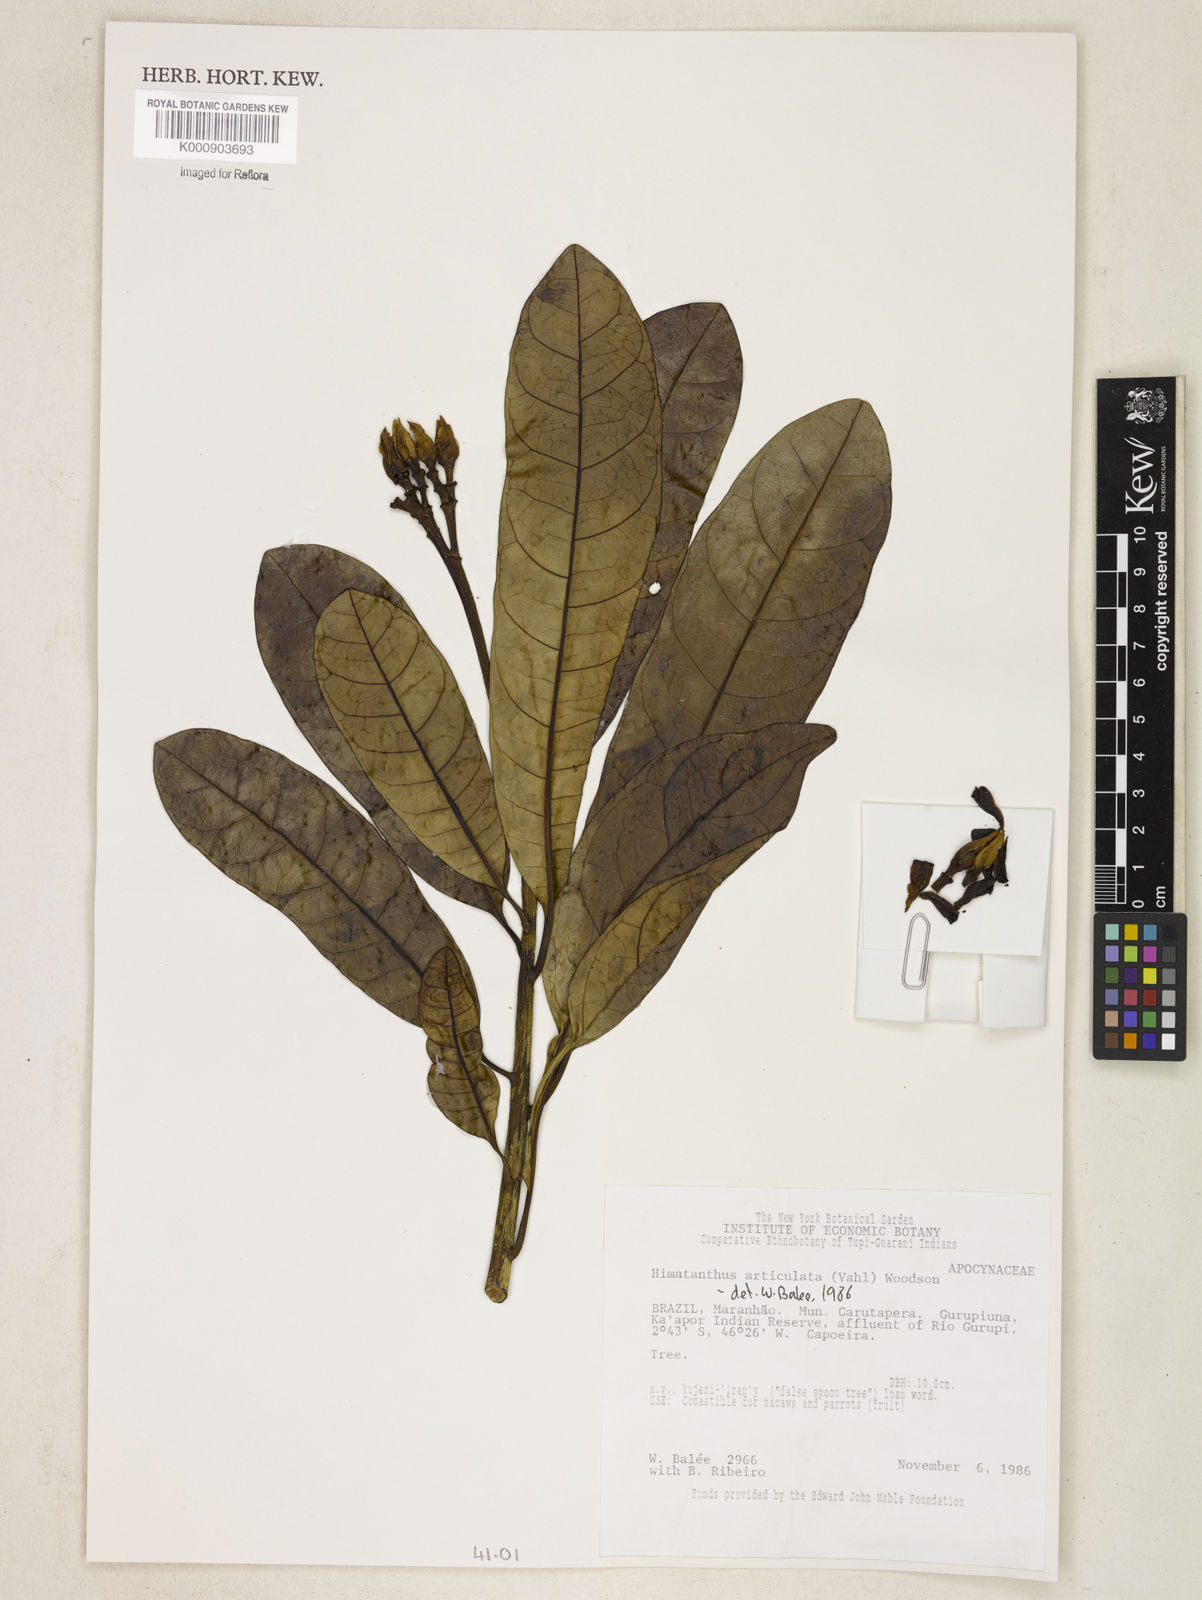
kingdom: Plantae
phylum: Tracheophyta
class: Magnoliopsida
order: Gentianales
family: Apocynaceae
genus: Himatanthus
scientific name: Himatanthus articulatus
